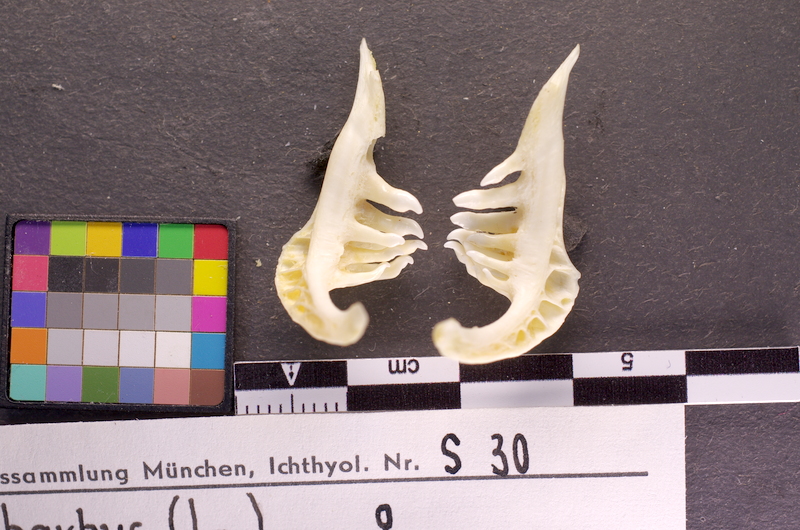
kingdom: Animalia
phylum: Chordata
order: Cypriniformes
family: Cyprinidae
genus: Barbus
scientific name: Barbus barbus
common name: Barbel
